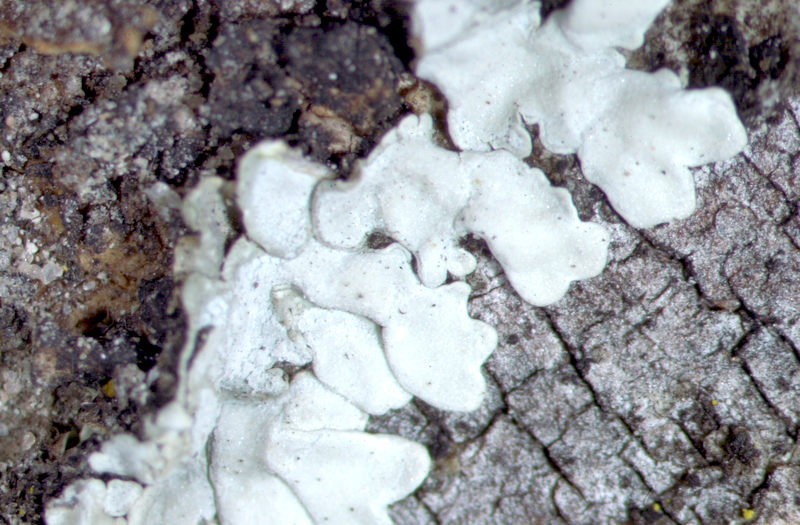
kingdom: Fungi
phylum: Ascomycota
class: Lecanoromycetes
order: Caliciales
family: Caliciaceae
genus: Pyxine
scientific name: Pyxine nubila
